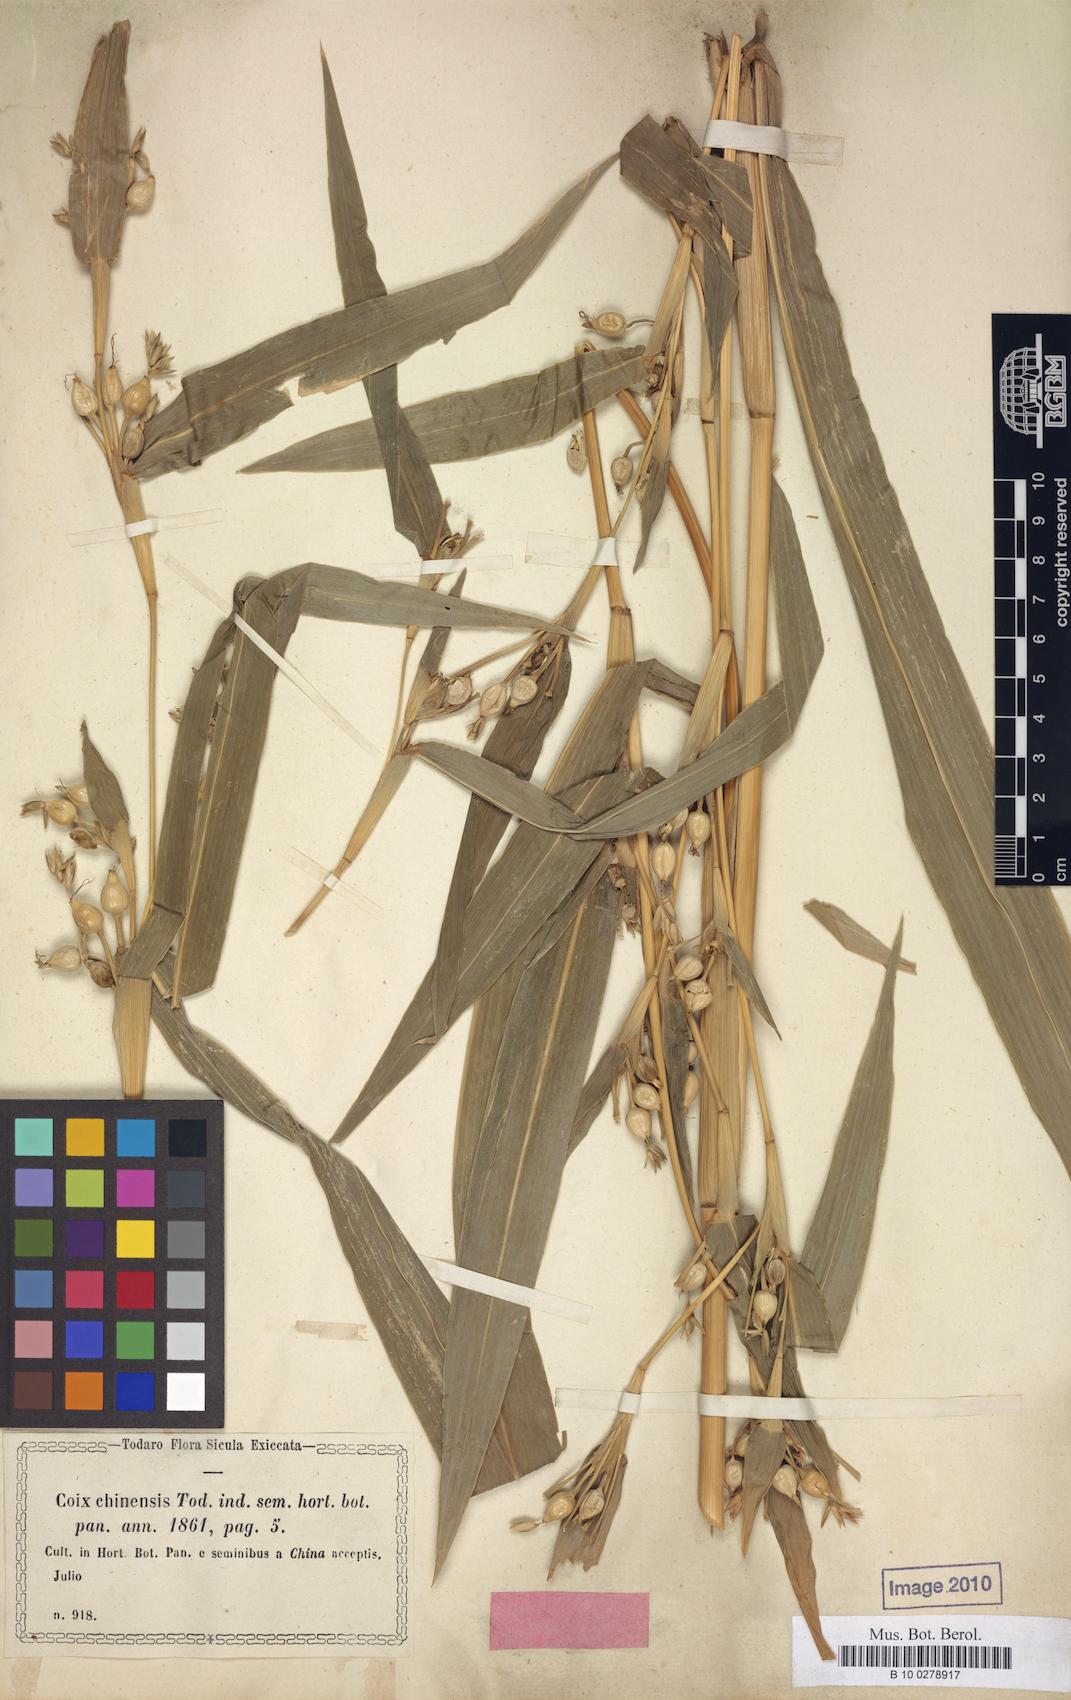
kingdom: Plantae
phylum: Tracheophyta
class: Liliopsida
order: Poales
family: Poaceae
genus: Coix
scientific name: Coix lacryma-jobi
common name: Job's tears
